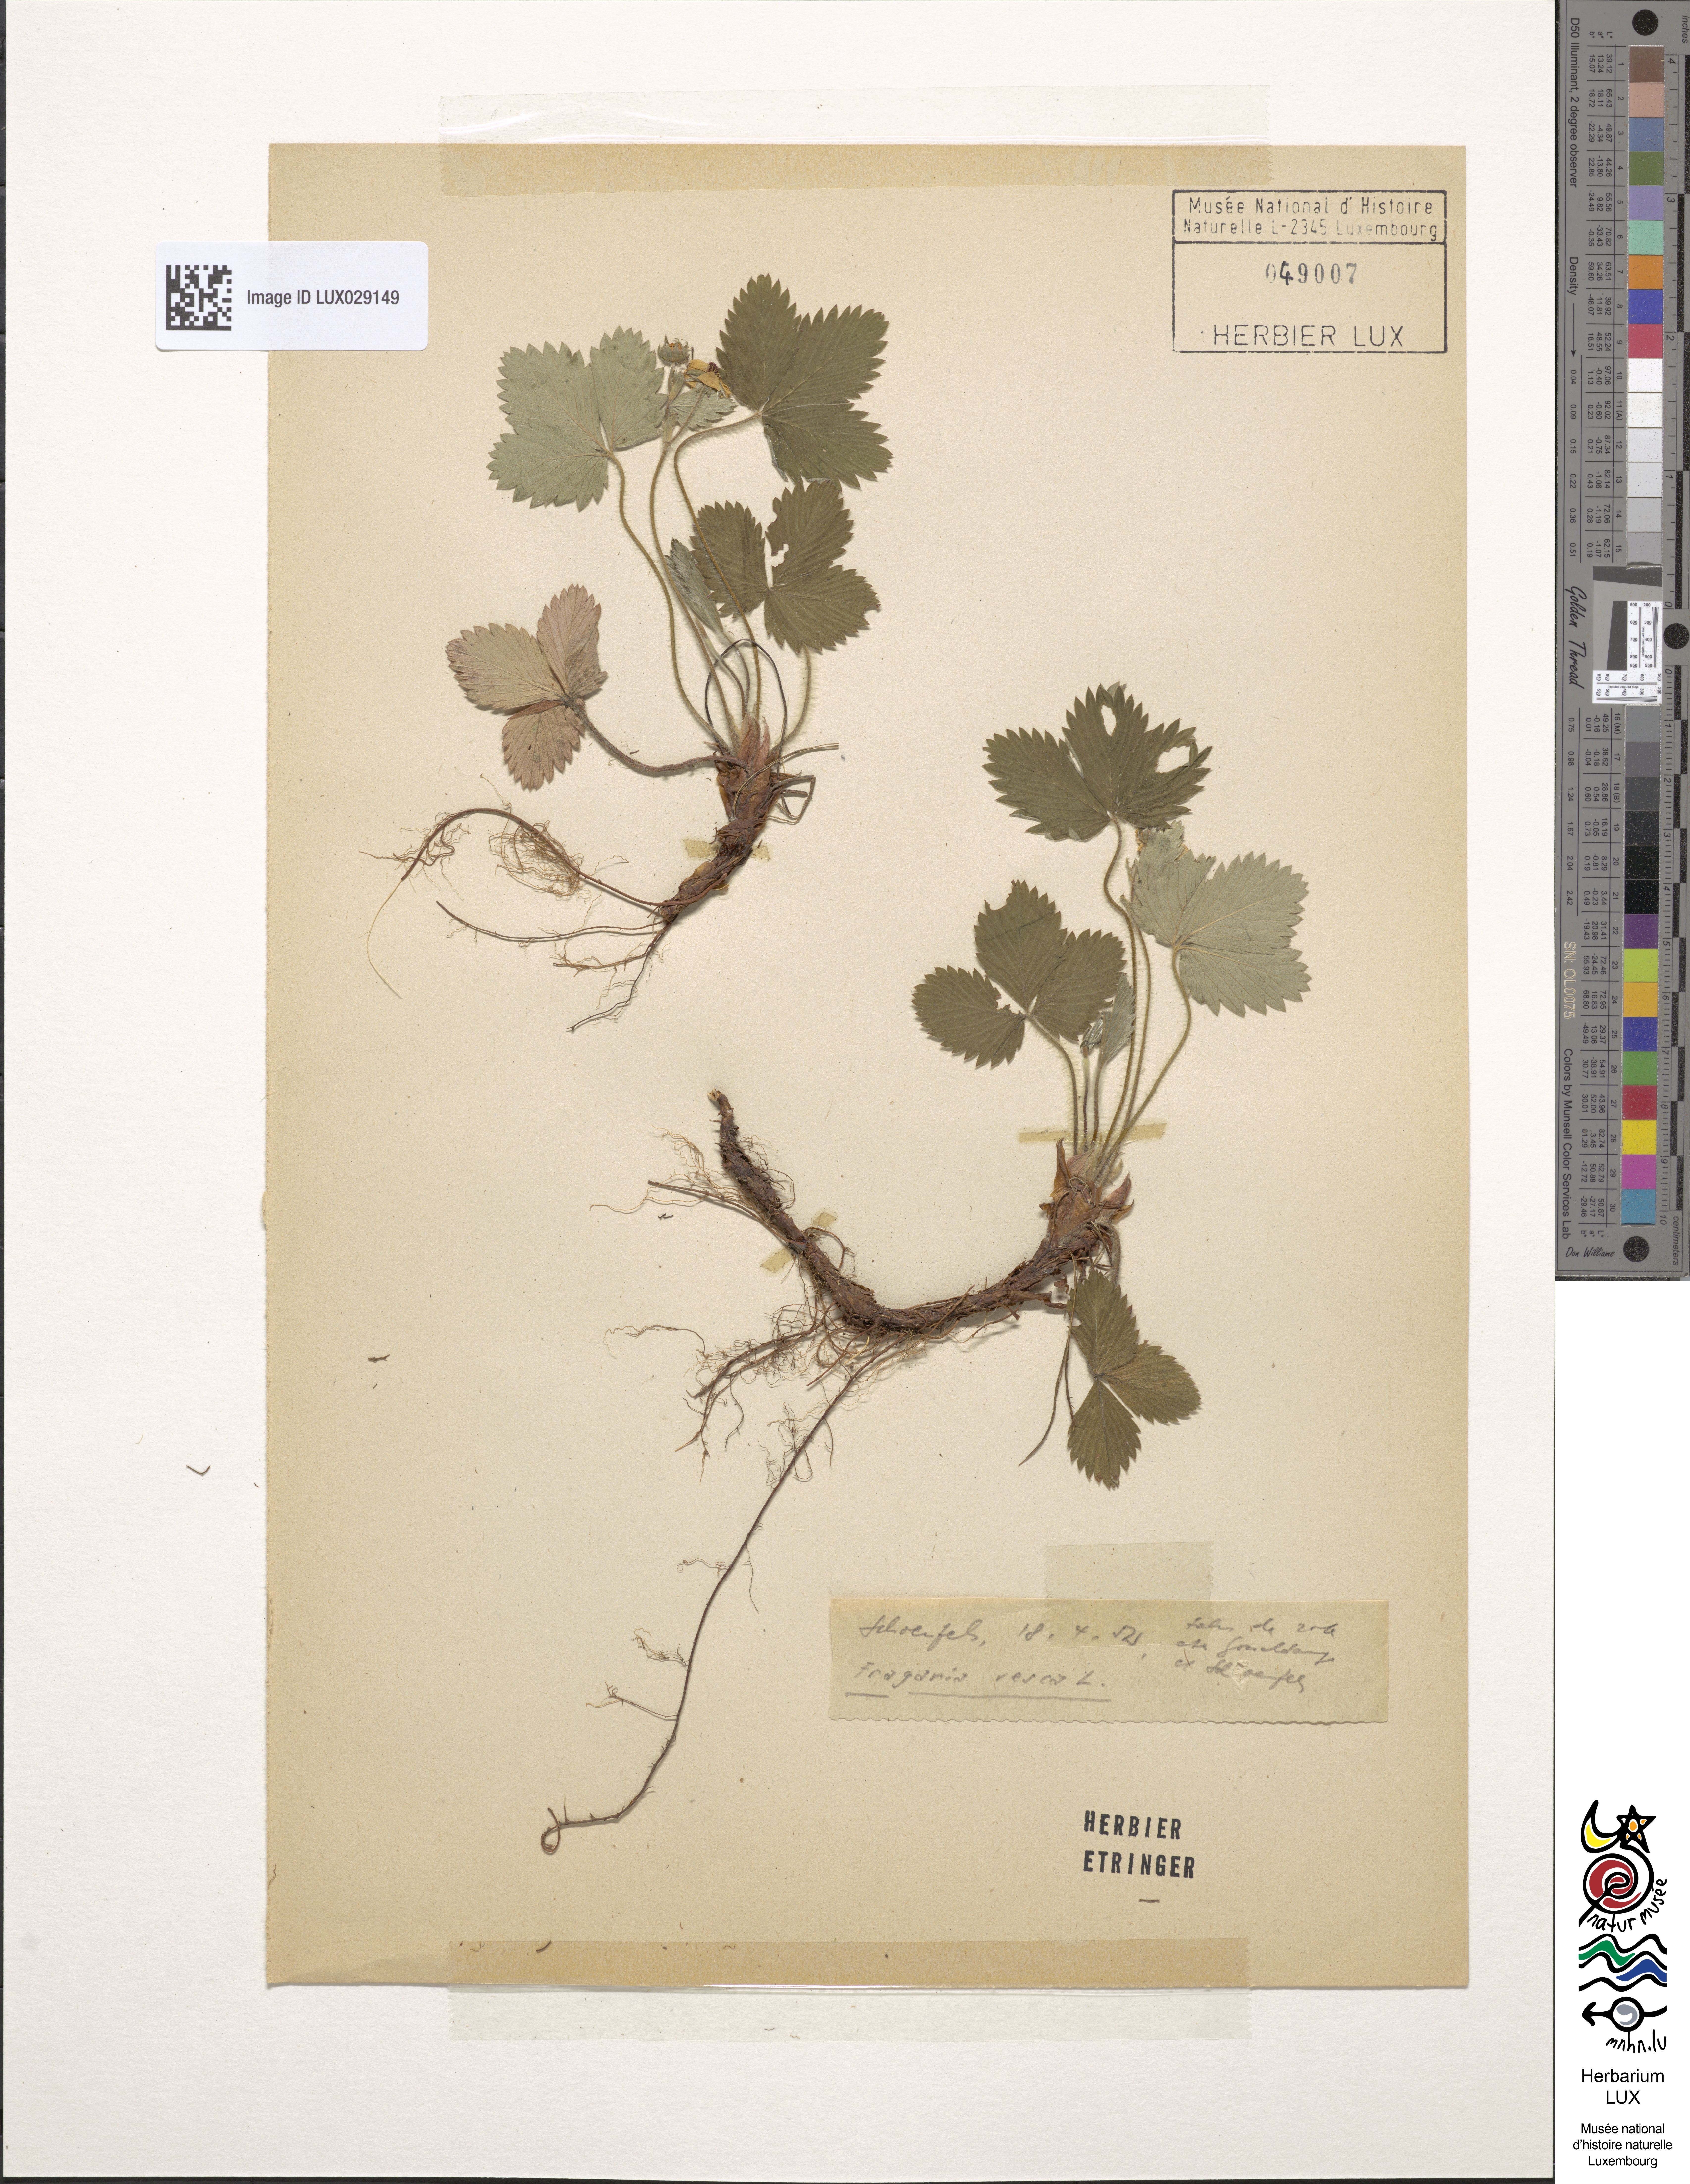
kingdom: Plantae
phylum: Tracheophyta
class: Magnoliopsida
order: Rosales
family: Rosaceae
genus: Fragaria
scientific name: Fragaria vesca
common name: Wild strawberry
